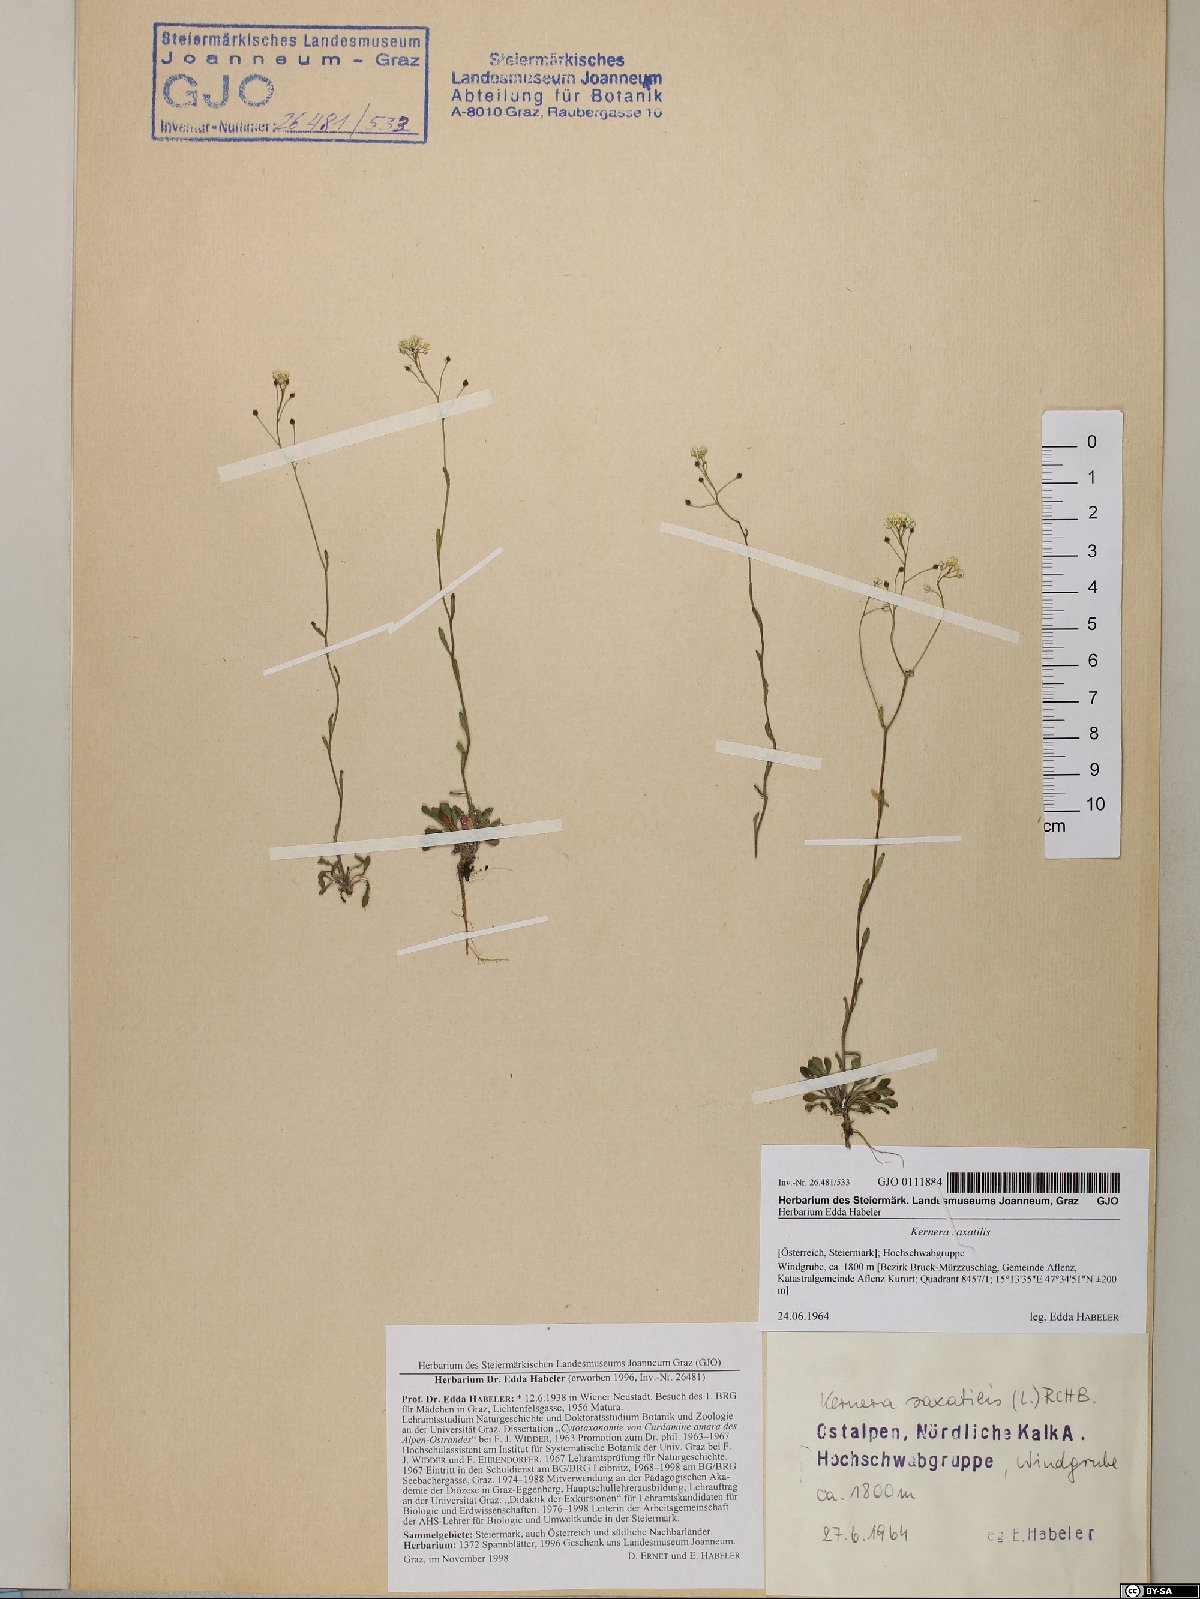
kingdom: Plantae
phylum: Tracheophyta
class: Magnoliopsida
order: Brassicales
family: Brassicaceae
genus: Kernera
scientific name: Kernera saxatilis
